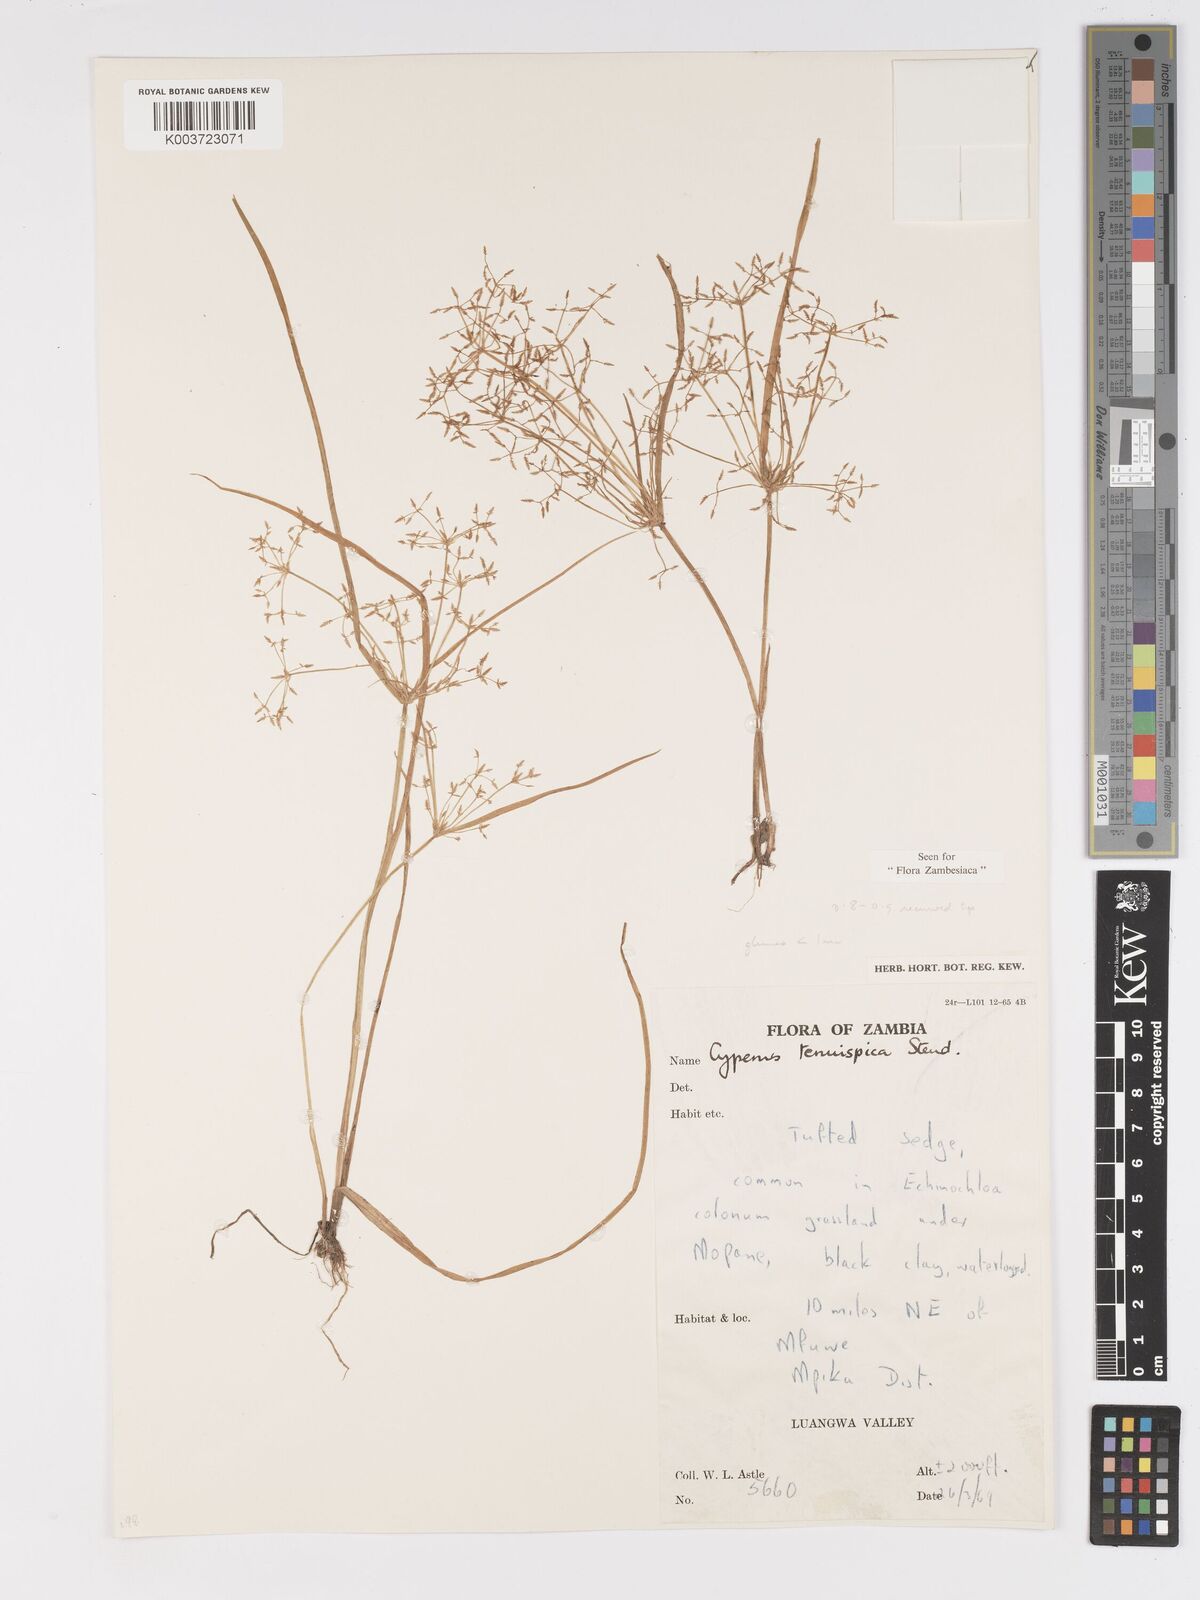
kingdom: Plantae
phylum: Tracheophyta
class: Liliopsida
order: Poales
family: Cyperaceae
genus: Cyperus
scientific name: Cyperus tenuispica
